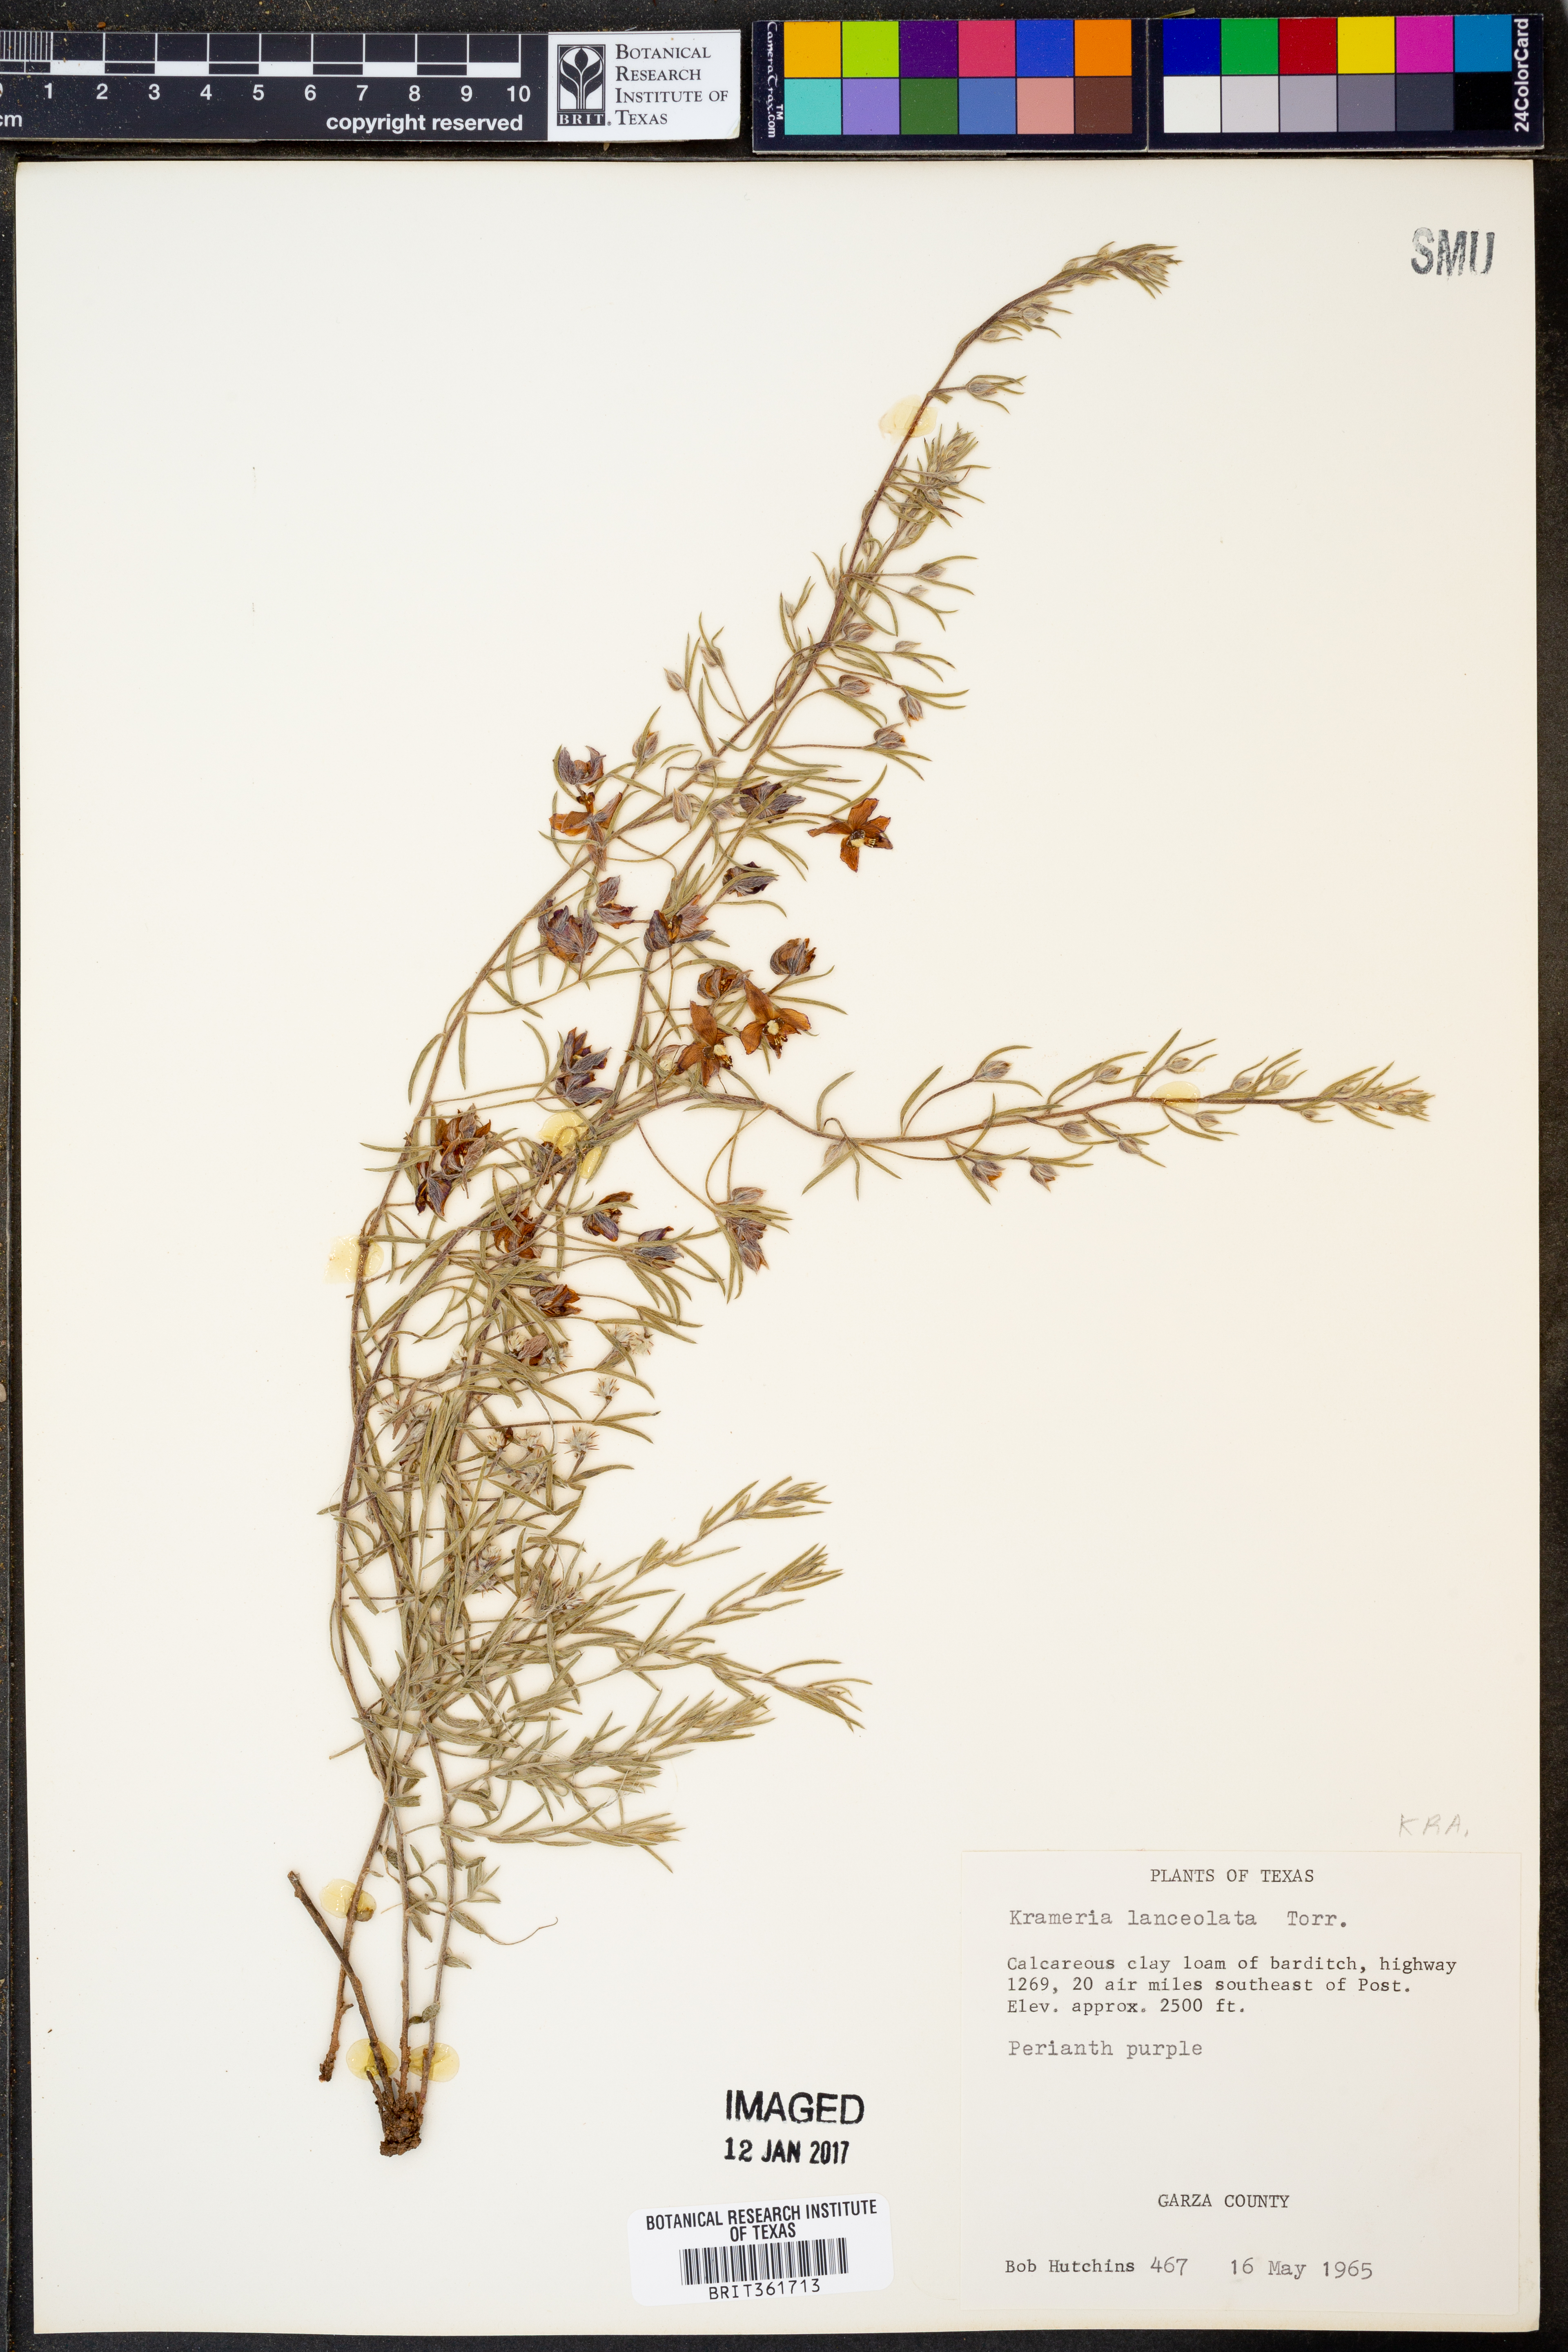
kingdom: Plantae
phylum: Tracheophyta
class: Magnoliopsida
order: Zygophyllales
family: Krameriaceae
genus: Krameria
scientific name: Krameria lanceolata
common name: Ratany
